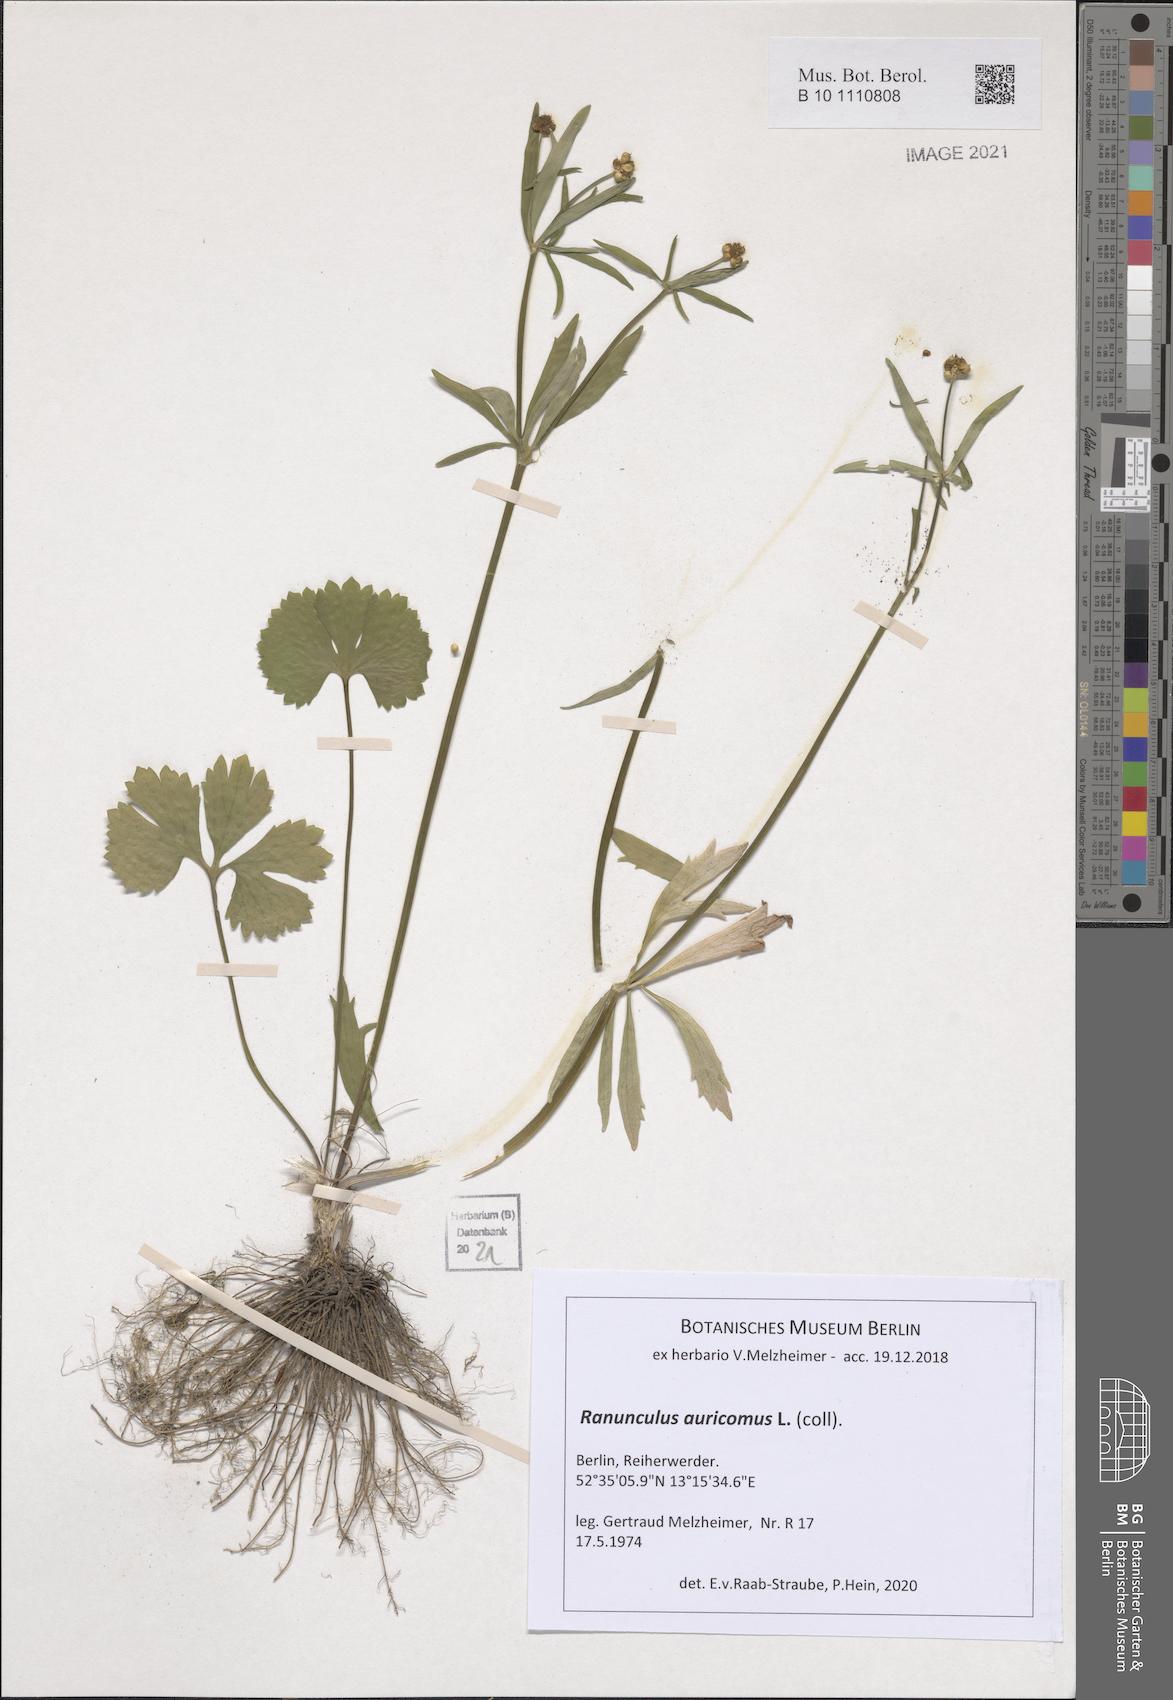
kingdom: Plantae
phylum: Tracheophyta
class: Magnoliopsida
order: Ranunculales
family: Ranunculaceae
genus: Ranunculus
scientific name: Ranunculus auricomus
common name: Goldilocks buttercup
